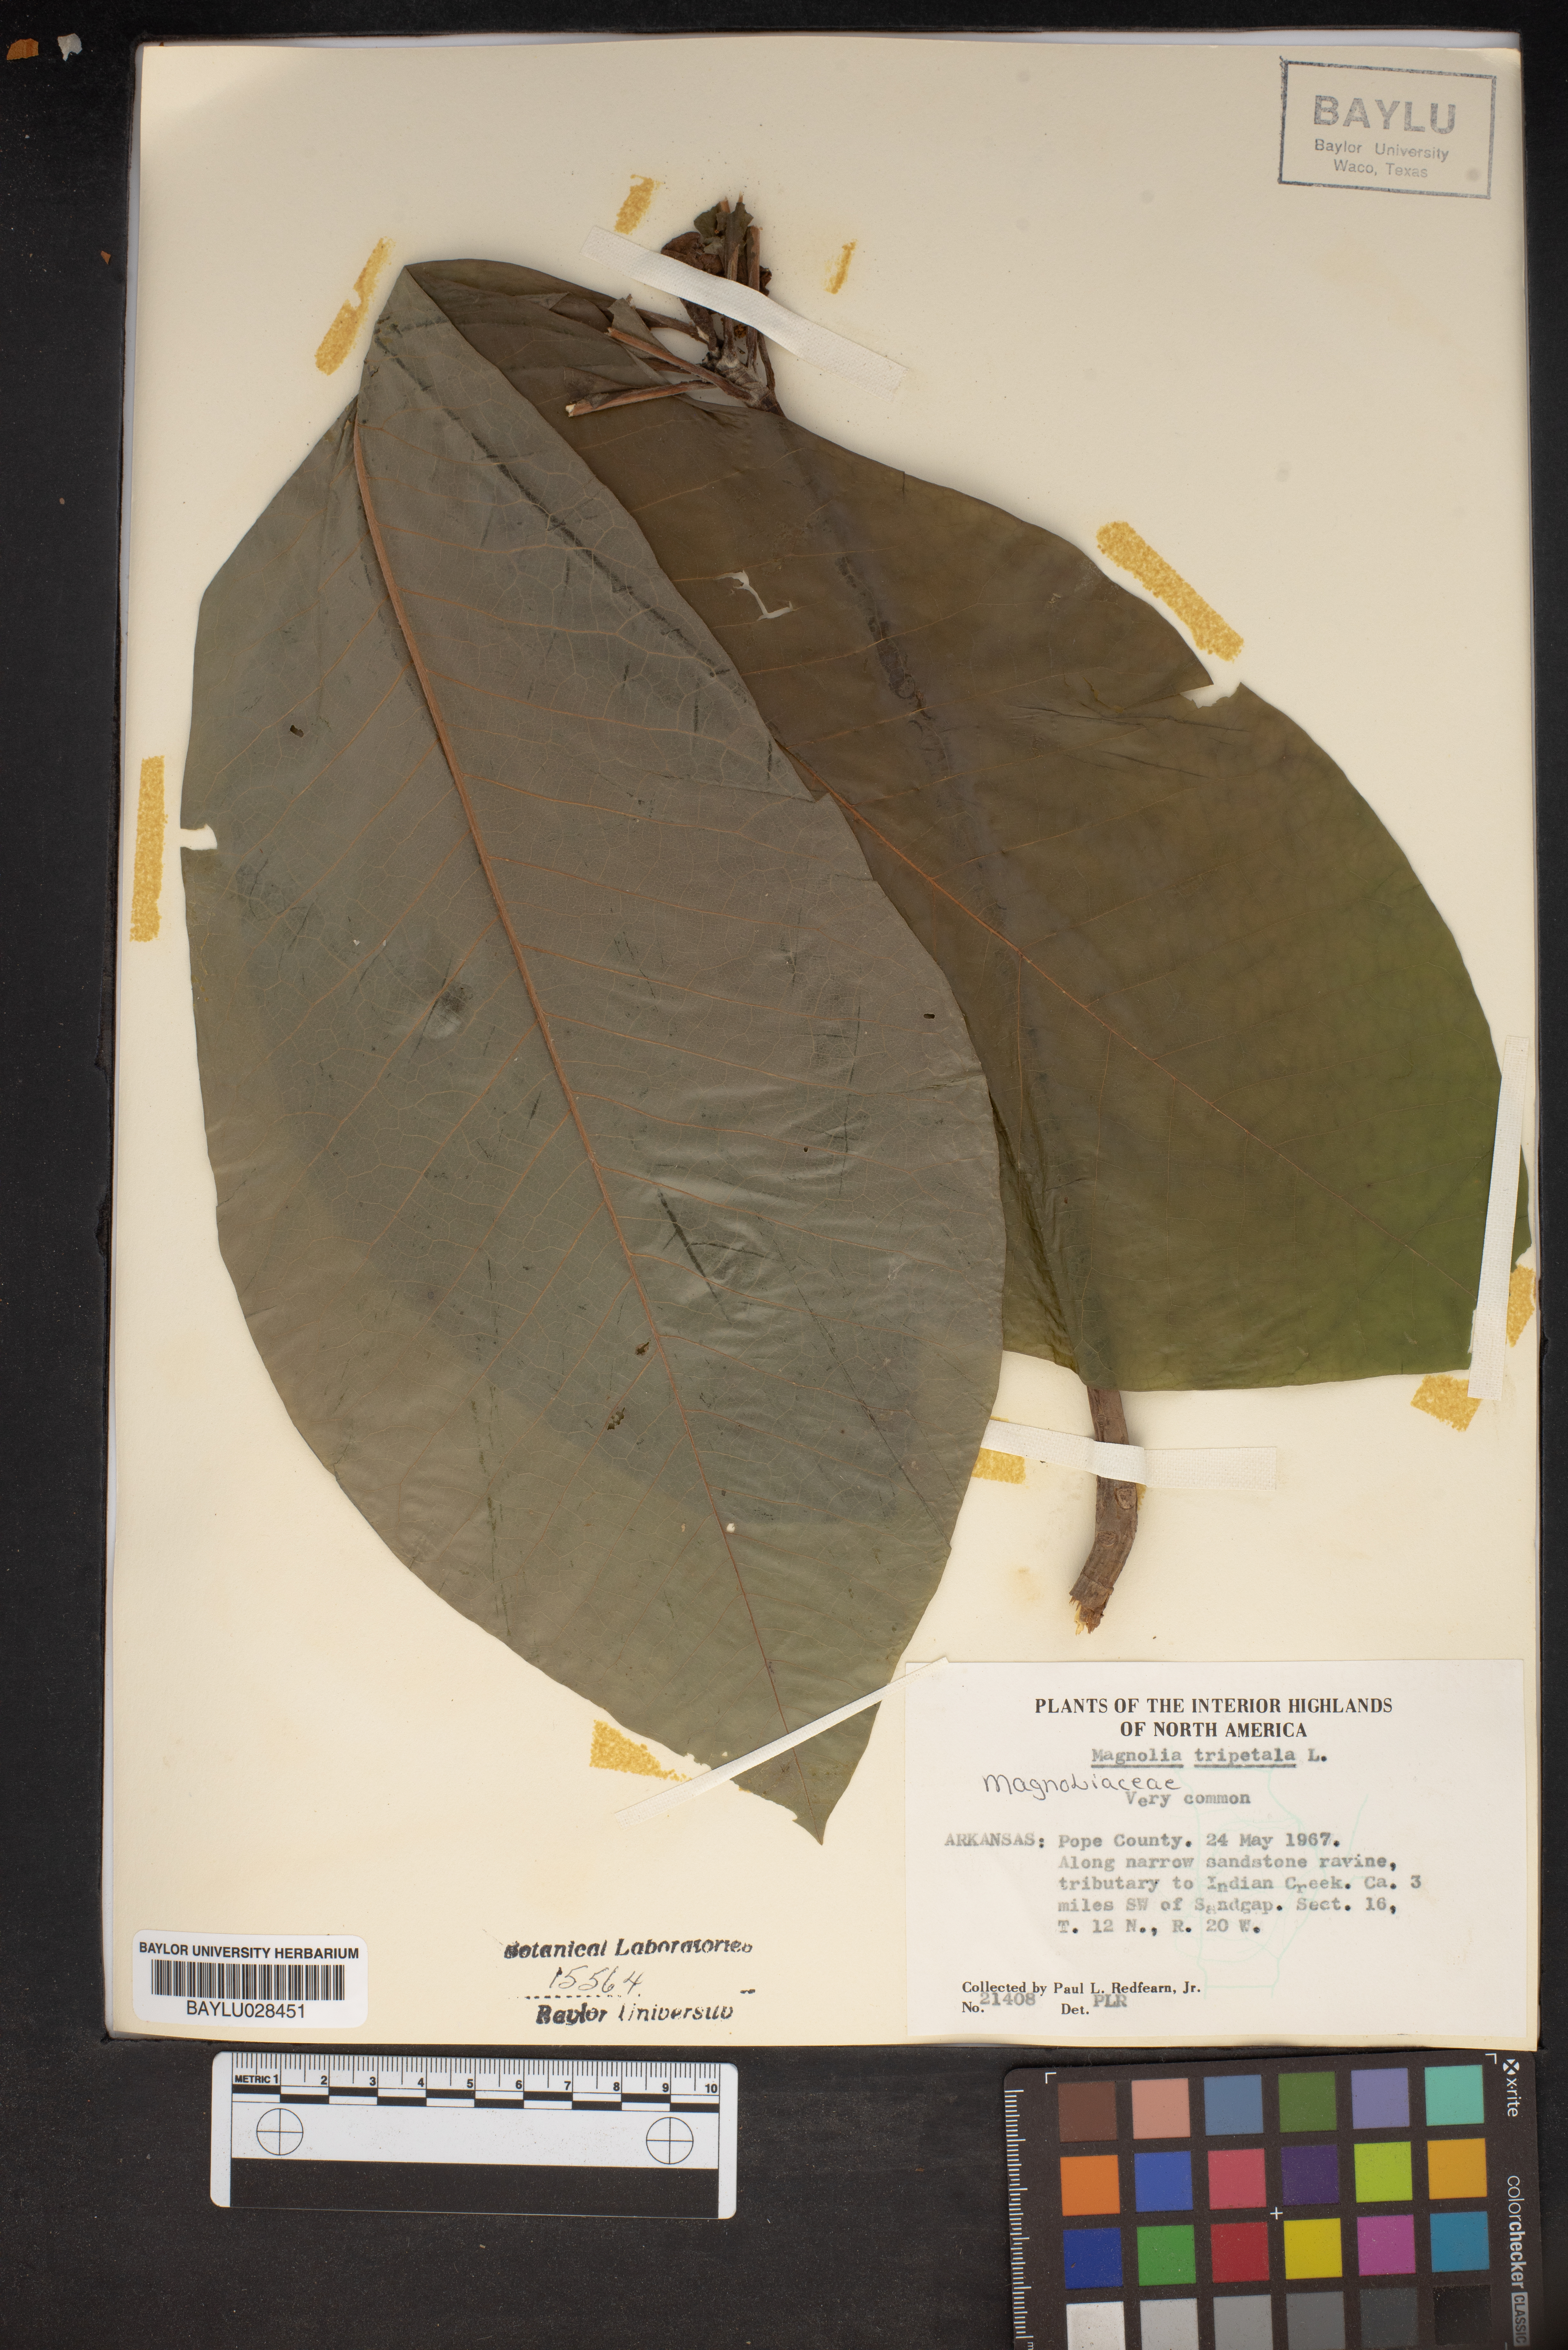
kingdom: Plantae
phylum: Tracheophyta
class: Magnoliopsida
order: Magnoliales
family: Magnoliaceae
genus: Magnolia
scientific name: Magnolia tripetala
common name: Umbrella magnolia
